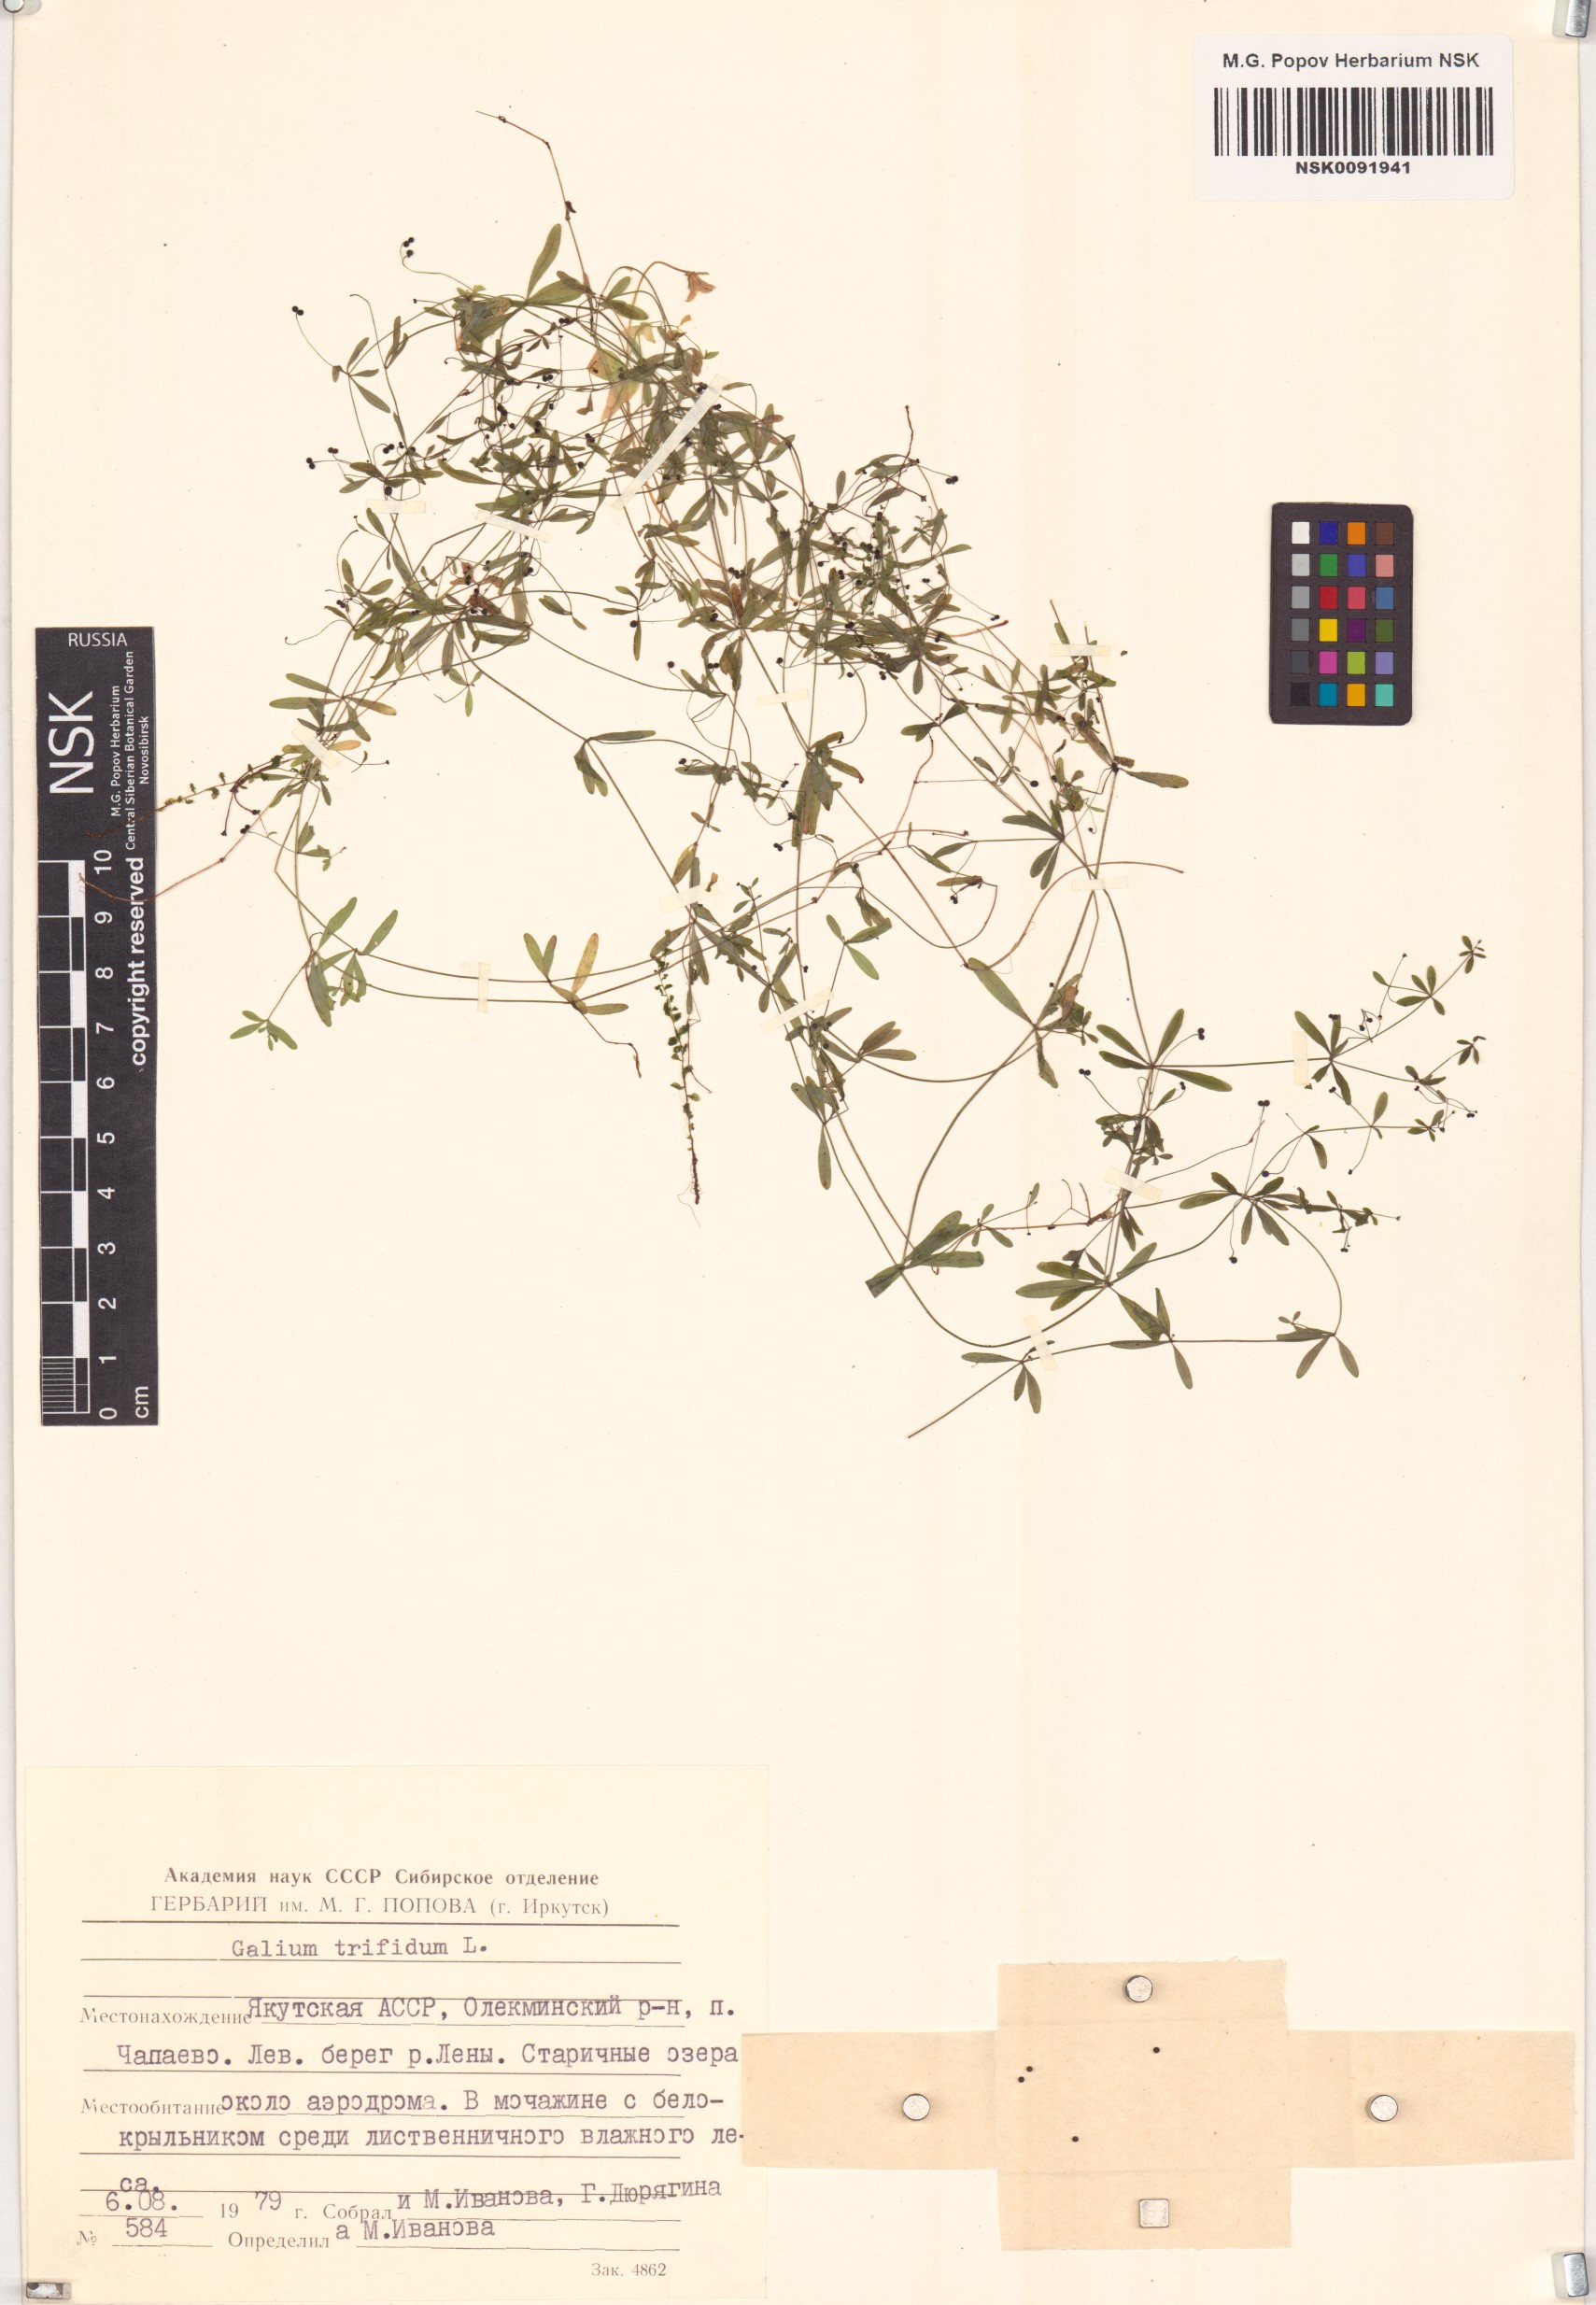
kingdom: Plantae
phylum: Tracheophyta
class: Magnoliopsida
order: Gentianales
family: Rubiaceae
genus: Galium
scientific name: Galium trifidum
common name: Small bedstraw
